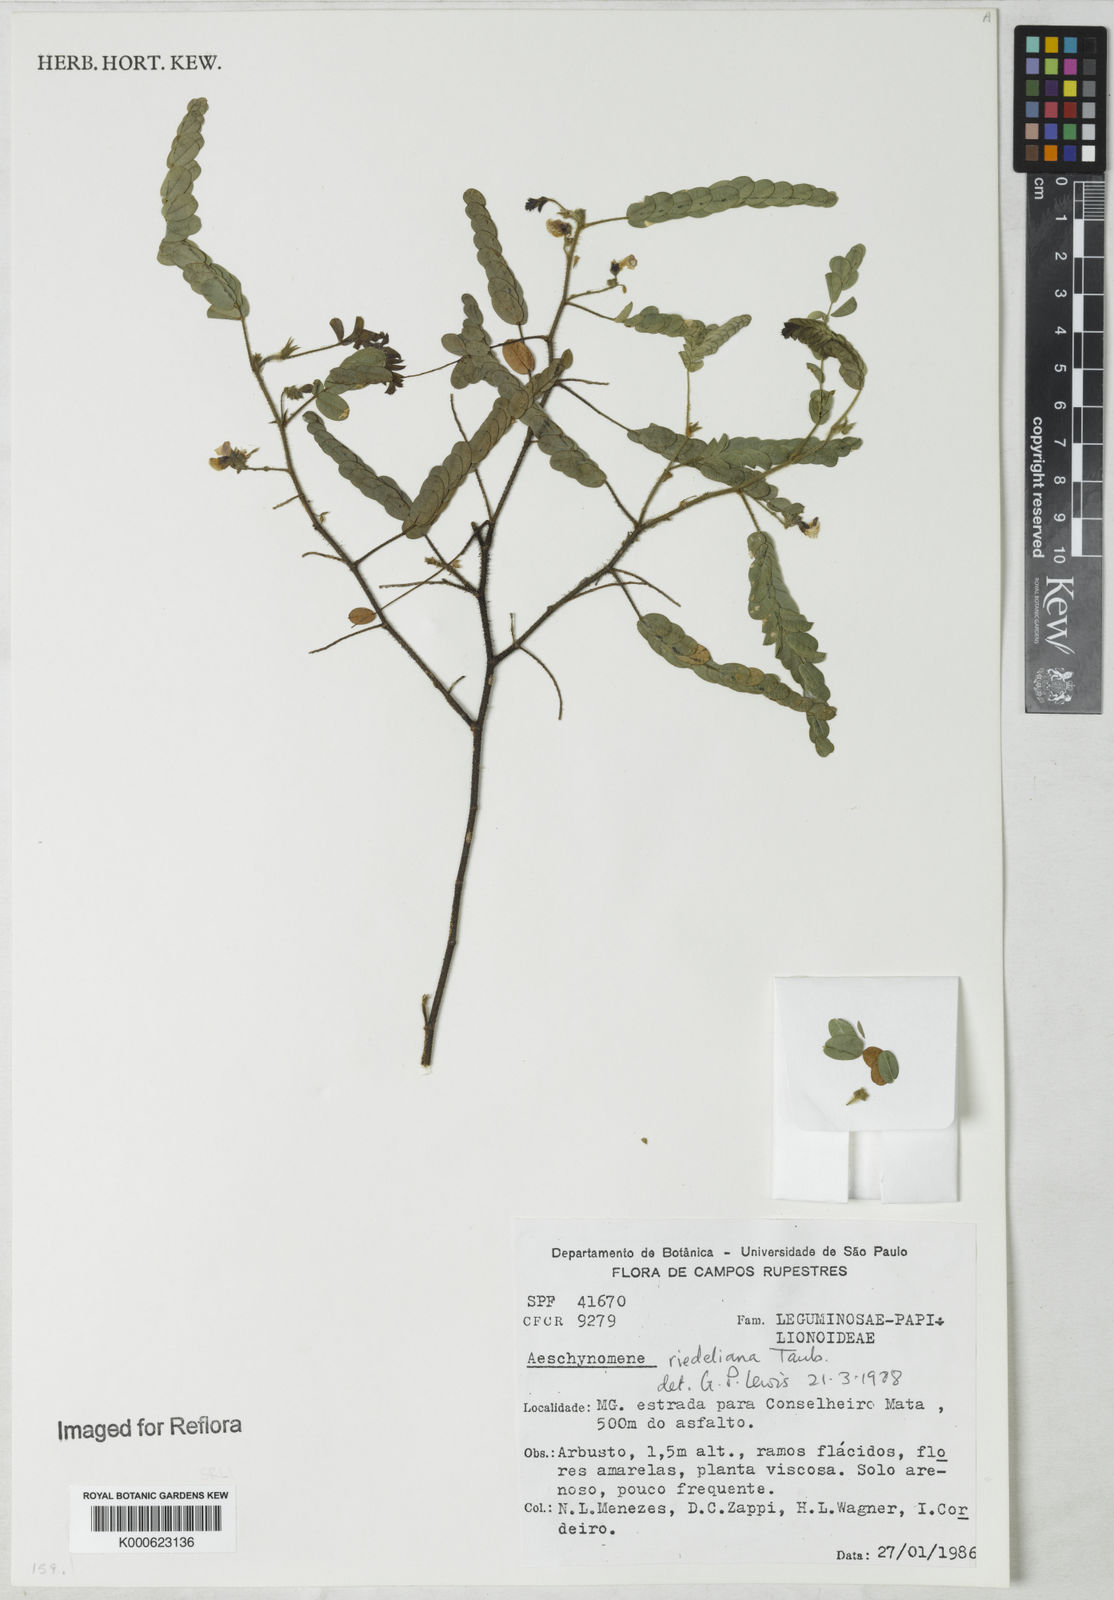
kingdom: Plantae
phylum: Tracheophyta
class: Magnoliopsida
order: Fabales
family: Fabaceae
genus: Ctenodon
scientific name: Ctenodon riedelianus
